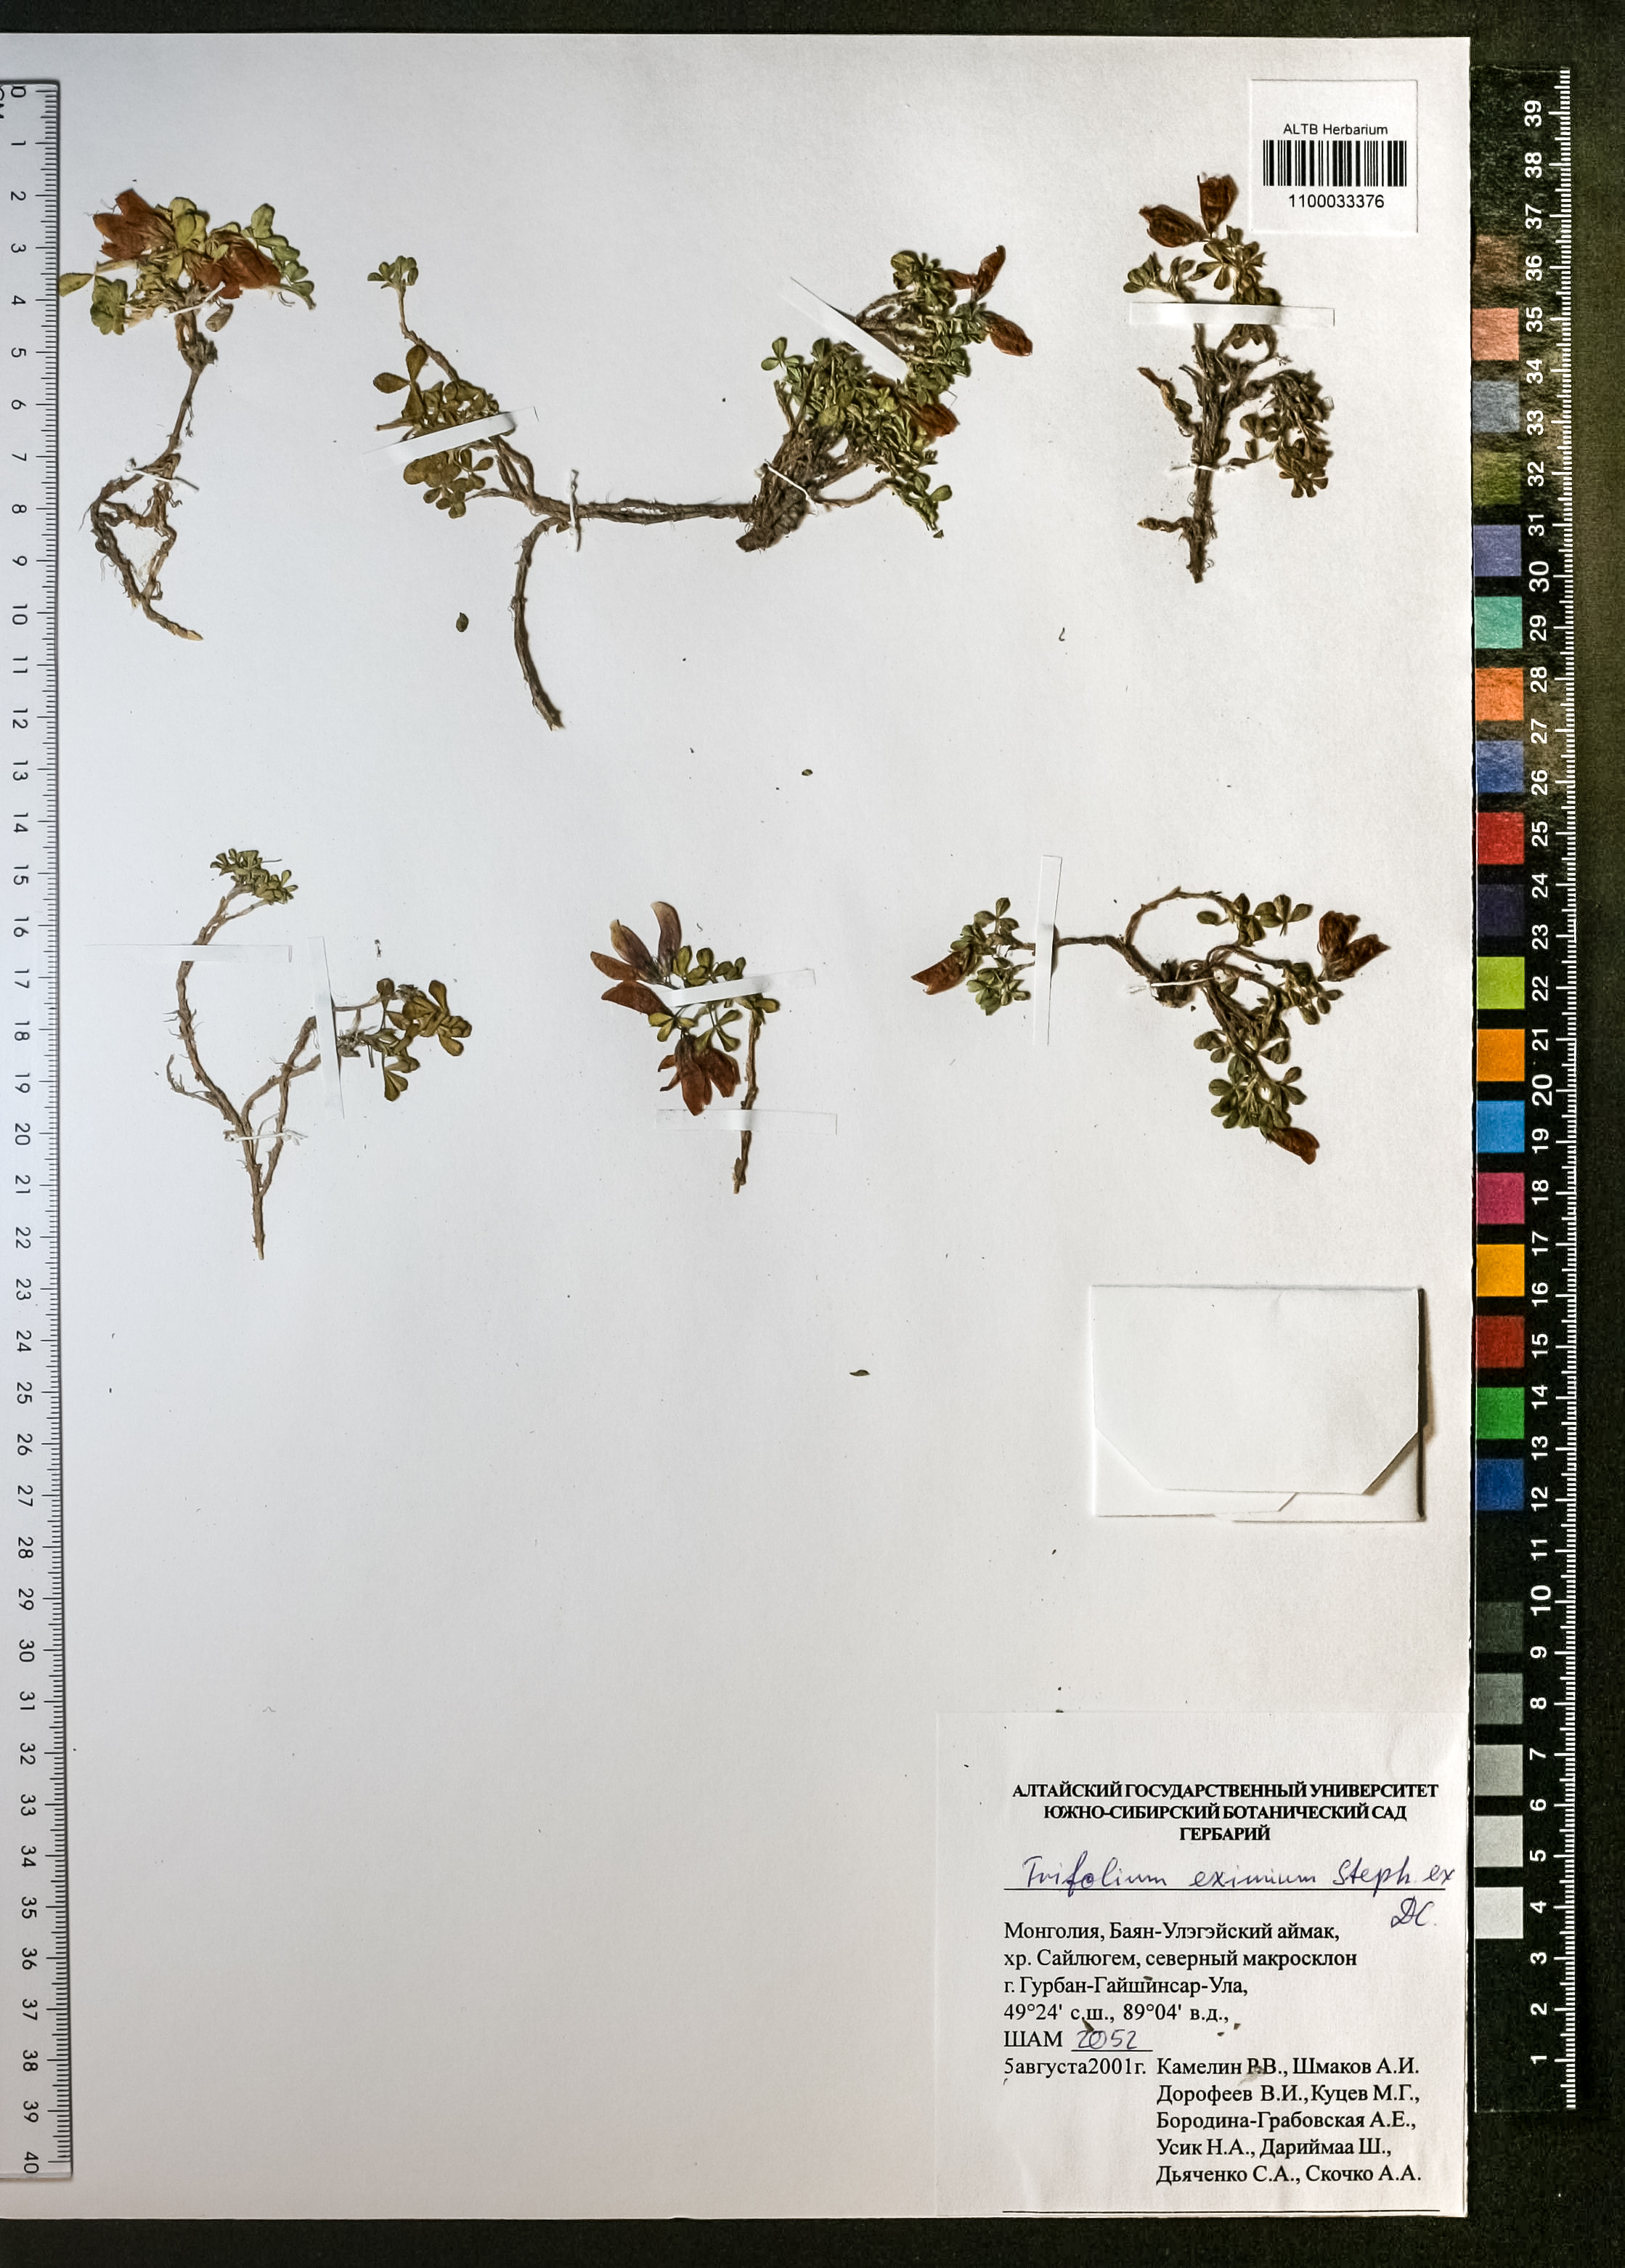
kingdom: Plantae
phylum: Tracheophyta
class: Magnoliopsida
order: Fabales
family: Fabaceae
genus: Trifolium
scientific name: Trifolium eximium
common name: Excellent clover
